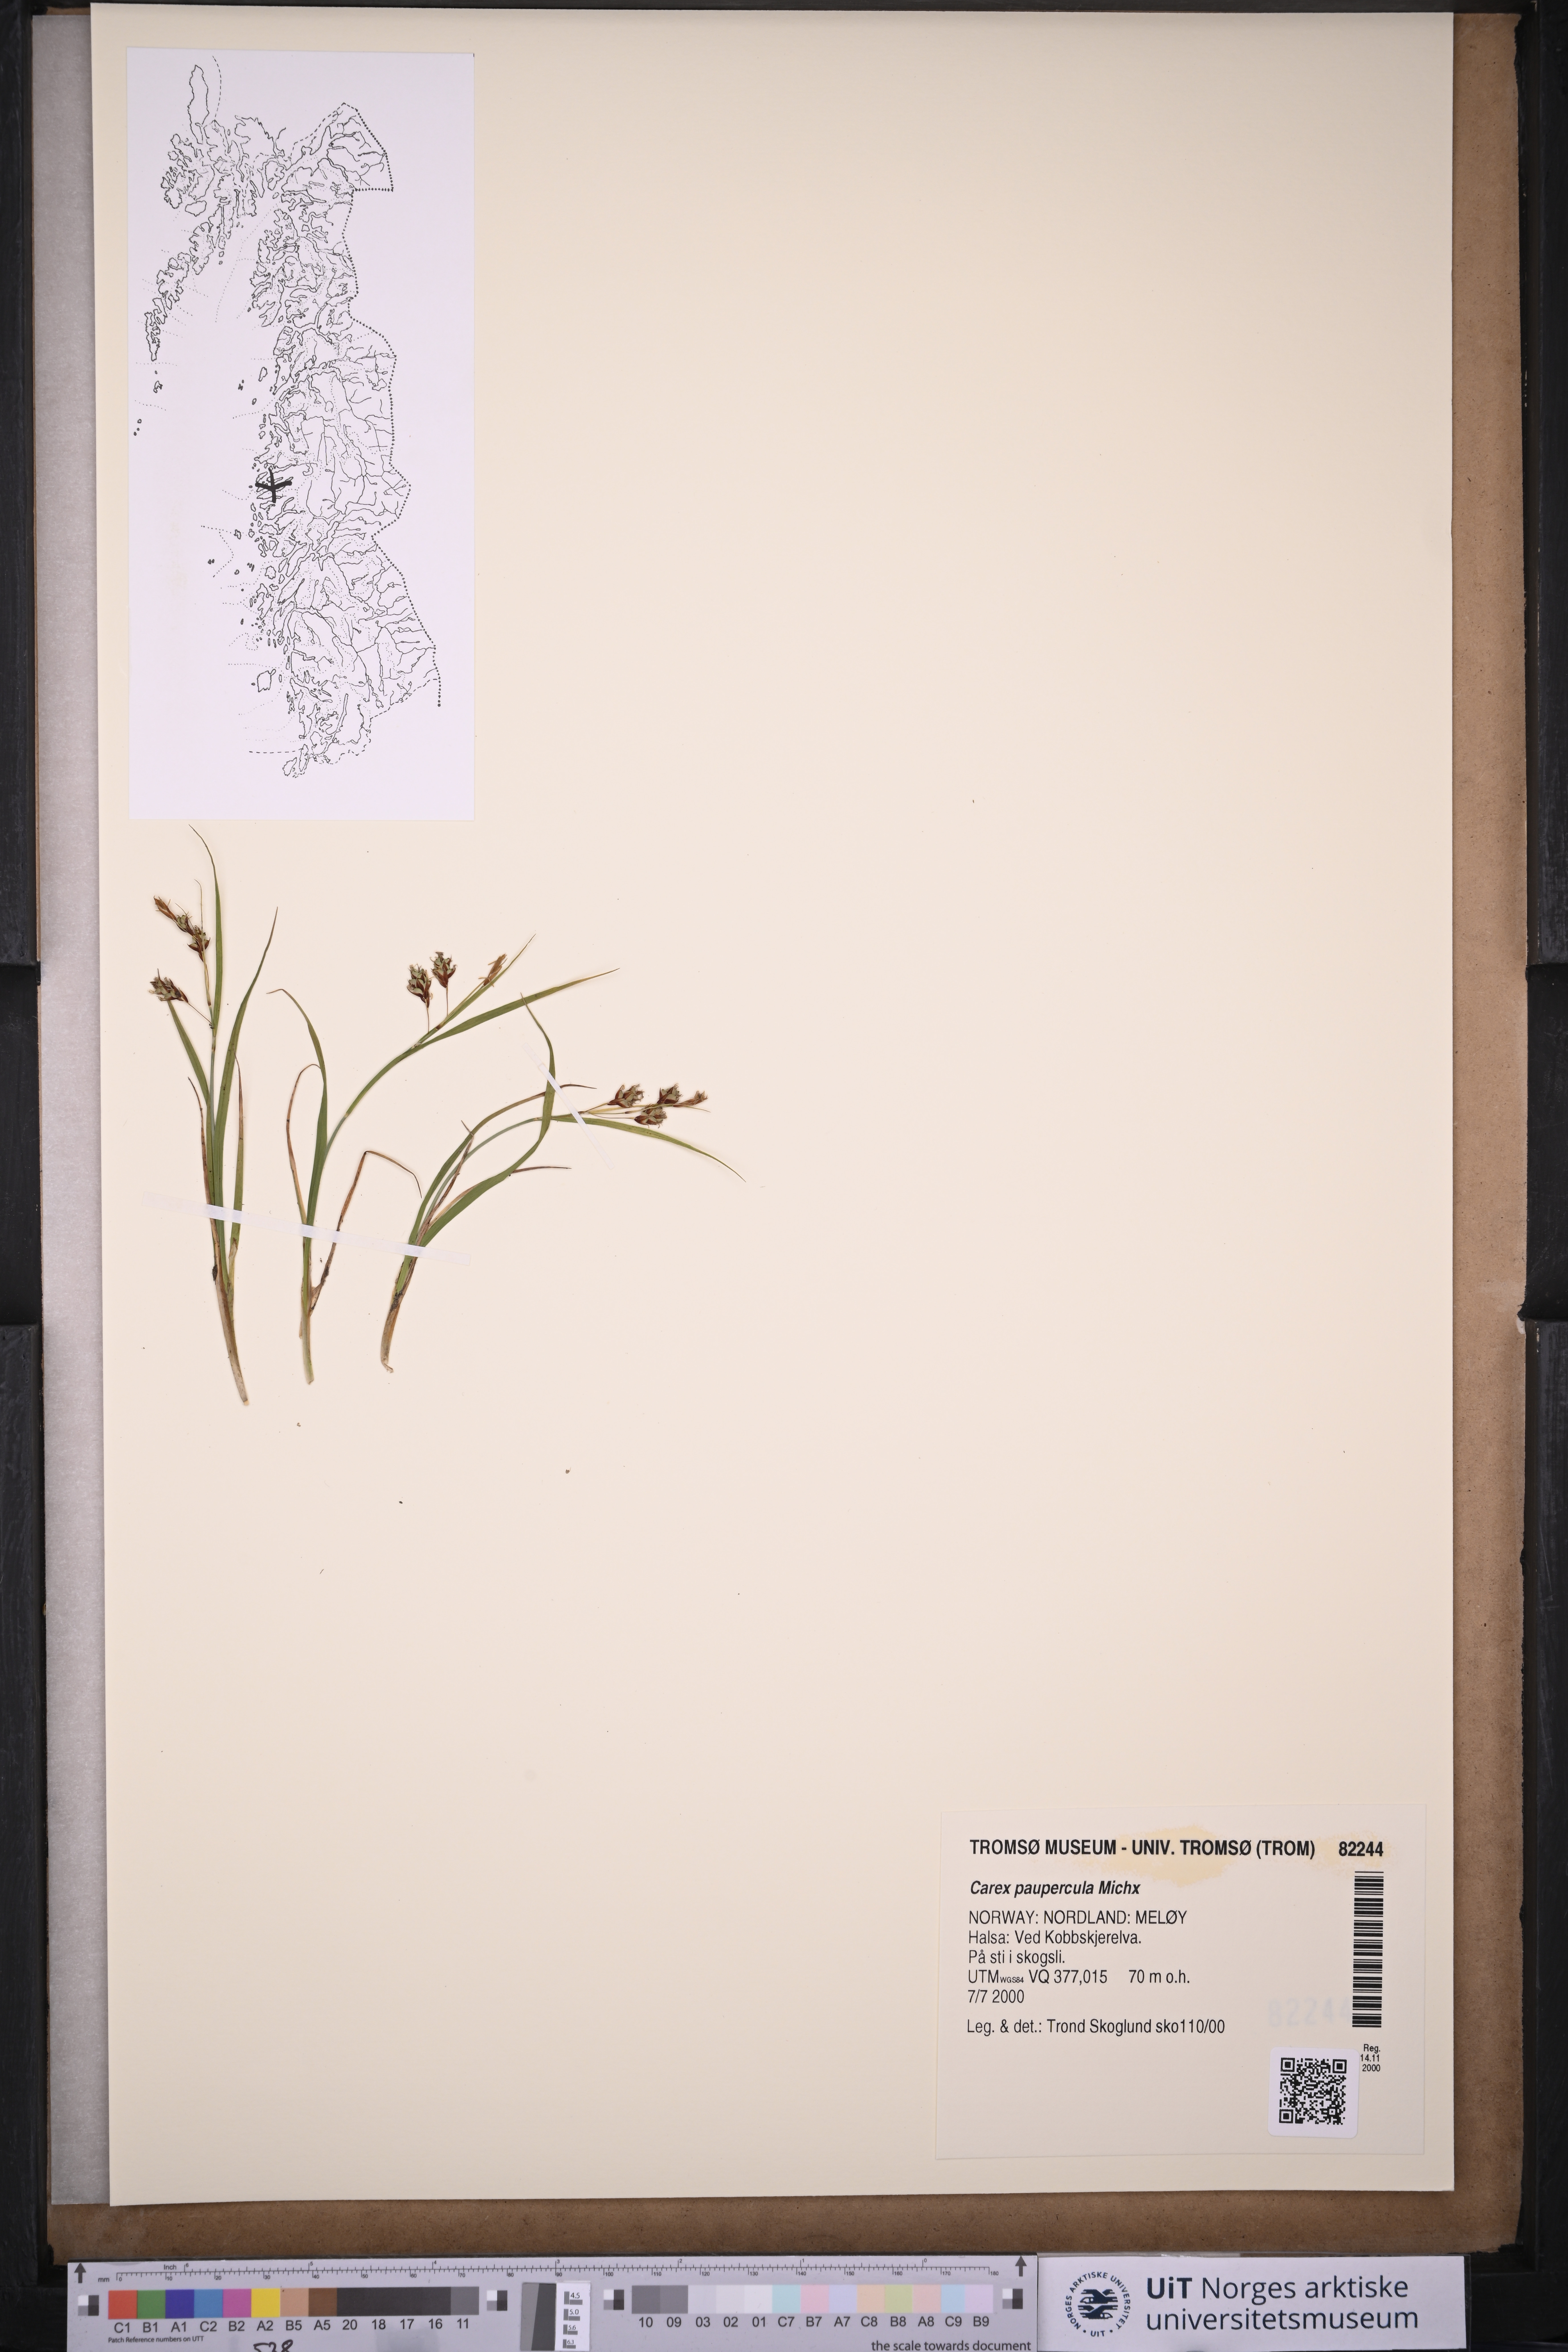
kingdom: Plantae
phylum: Tracheophyta
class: Liliopsida
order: Poales
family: Cyperaceae
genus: Carex
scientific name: Carex magellanica
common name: Bog sedge
